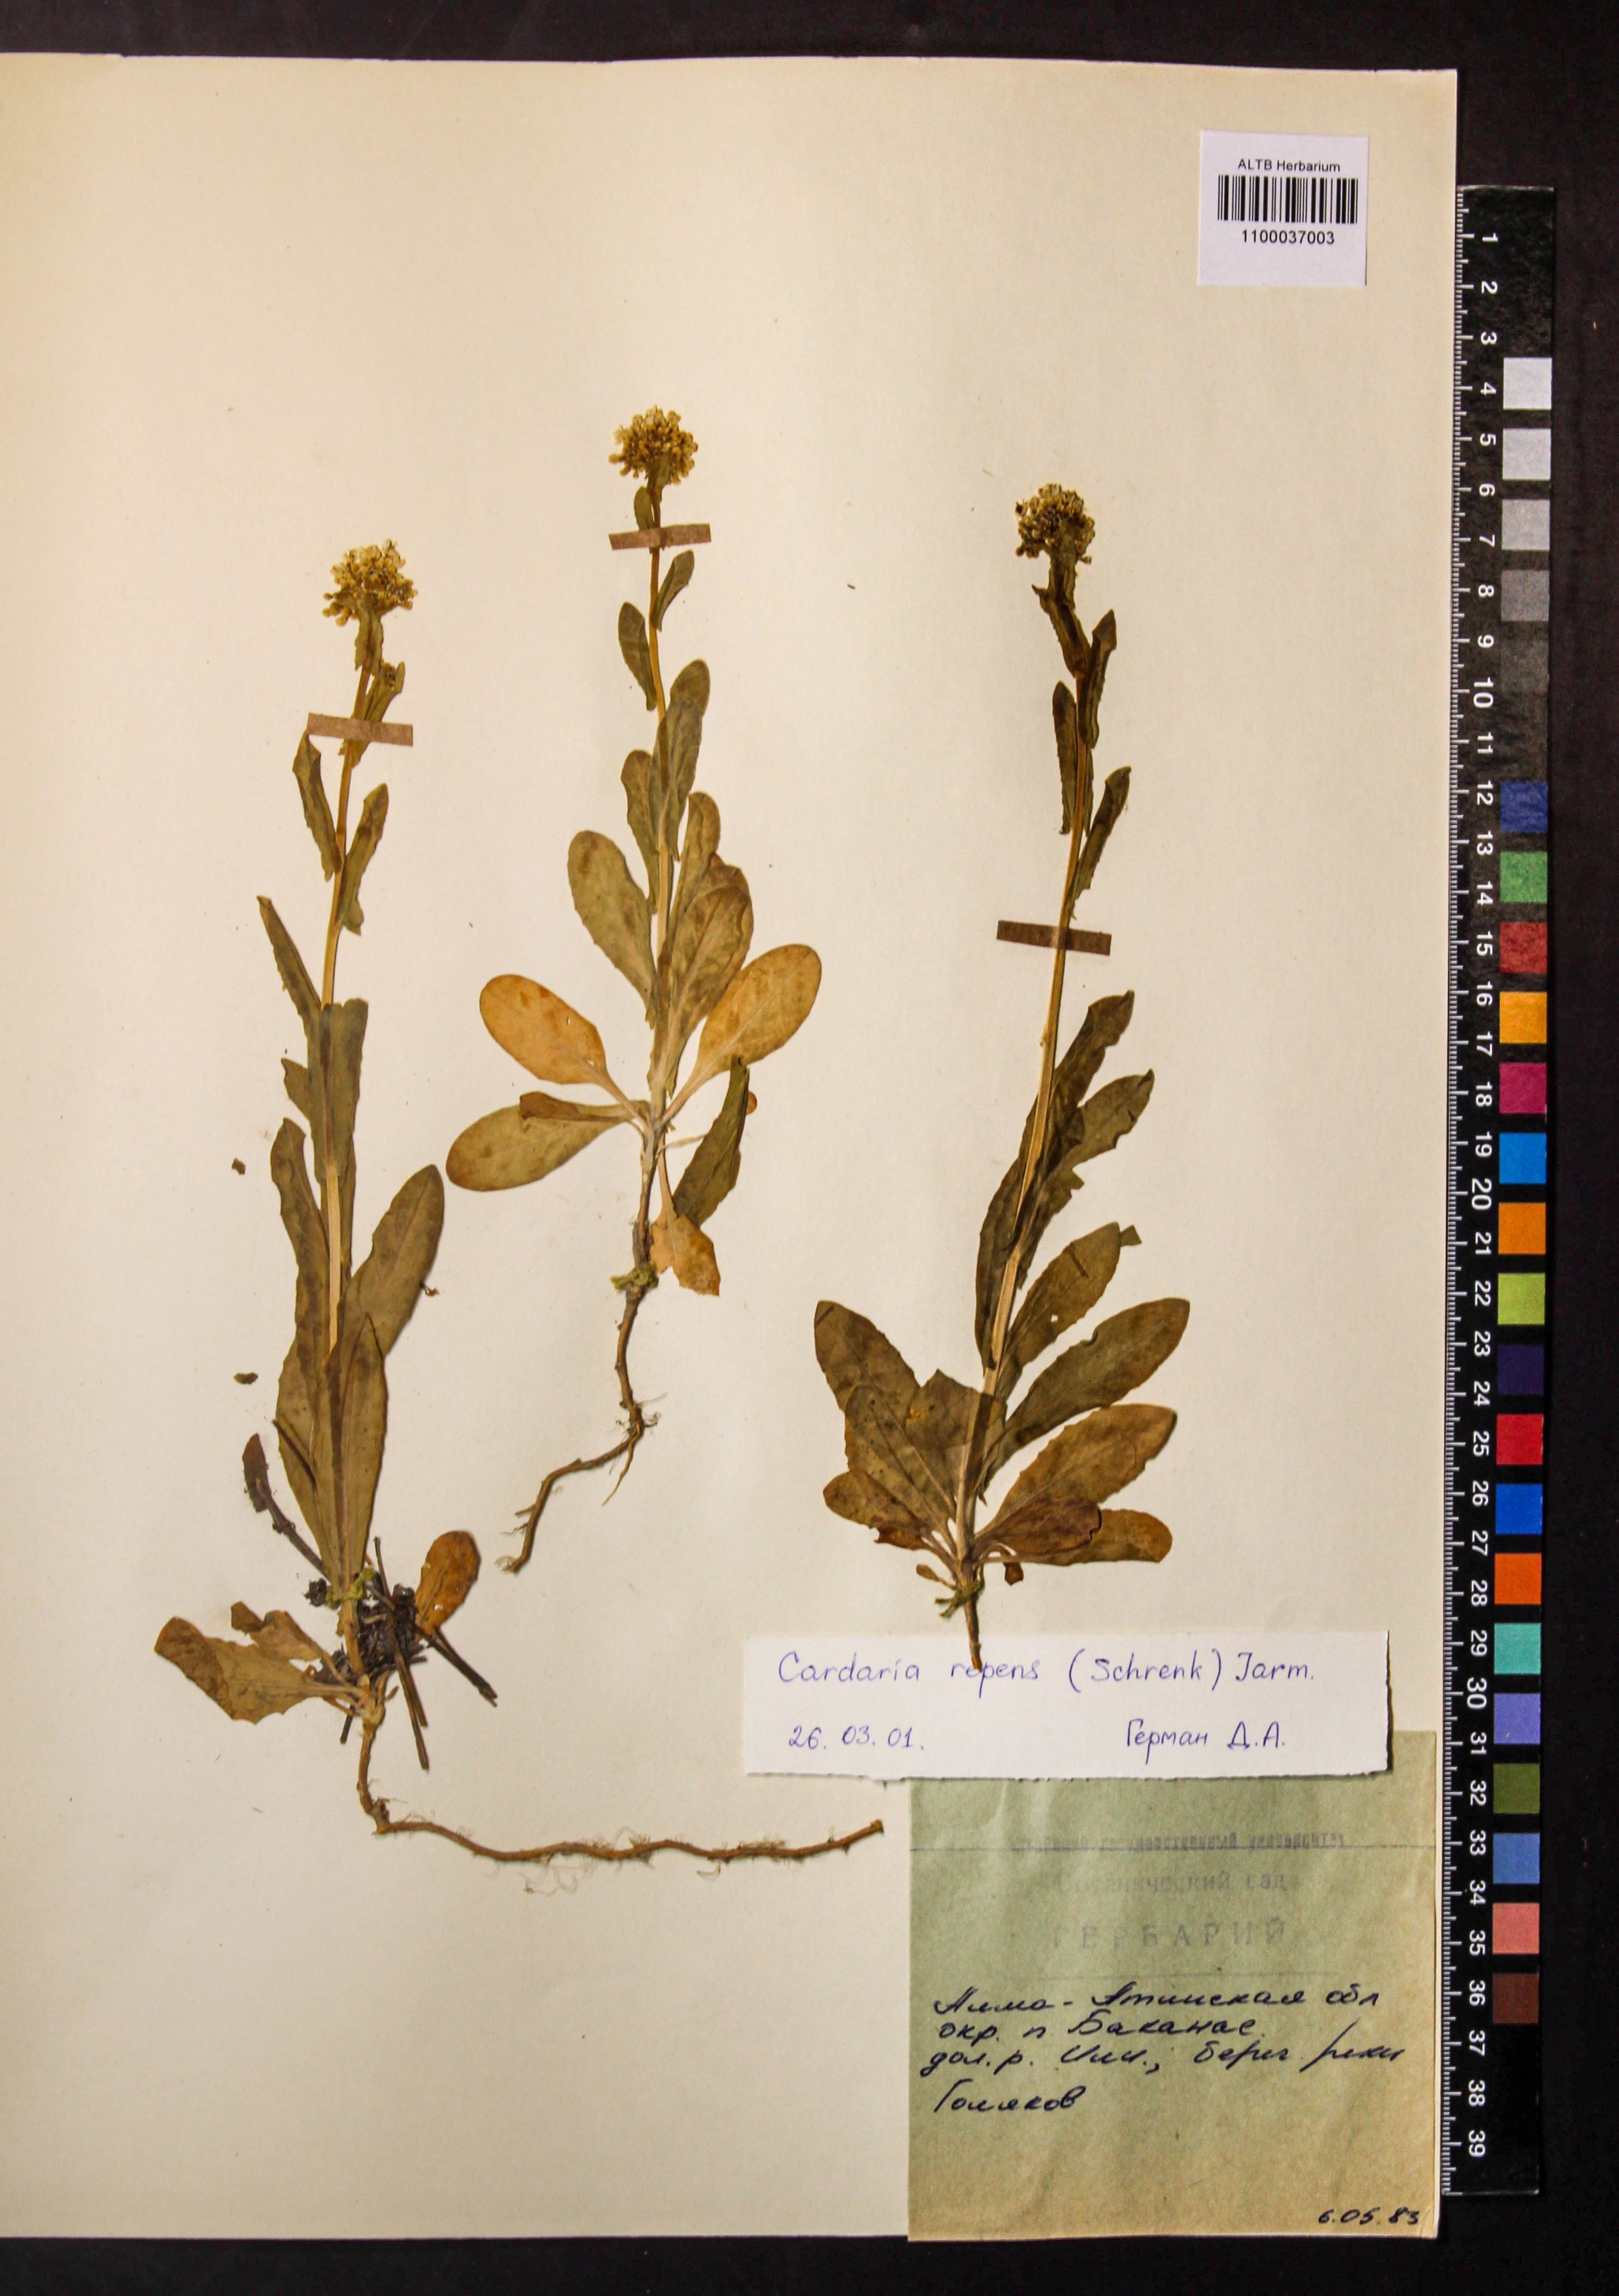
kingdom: Plantae
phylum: Tracheophyta
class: Magnoliopsida
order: Brassicales
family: Brassicaceae
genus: Lepidium
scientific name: Lepidium chalepense
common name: Orbicular whitetop
